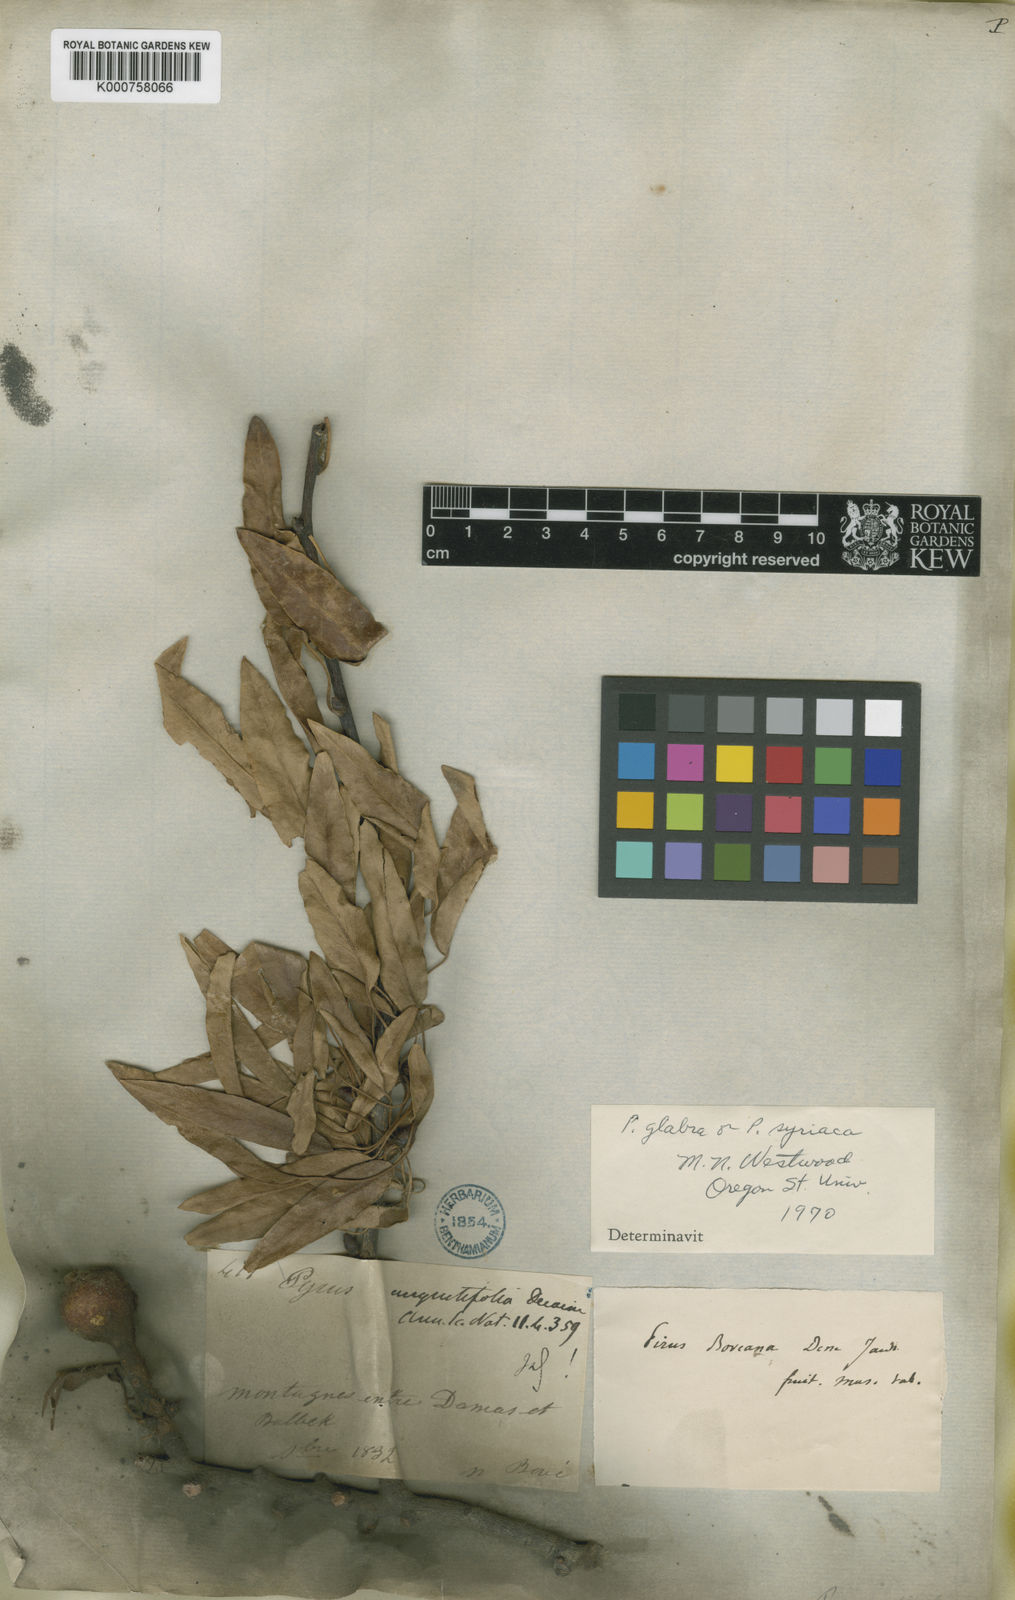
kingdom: Plantae
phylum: Tracheophyta
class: Magnoliopsida
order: Rosales
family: Rosaceae
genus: Pyrus
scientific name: Pyrus spinosa
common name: Almond-leaf pear
